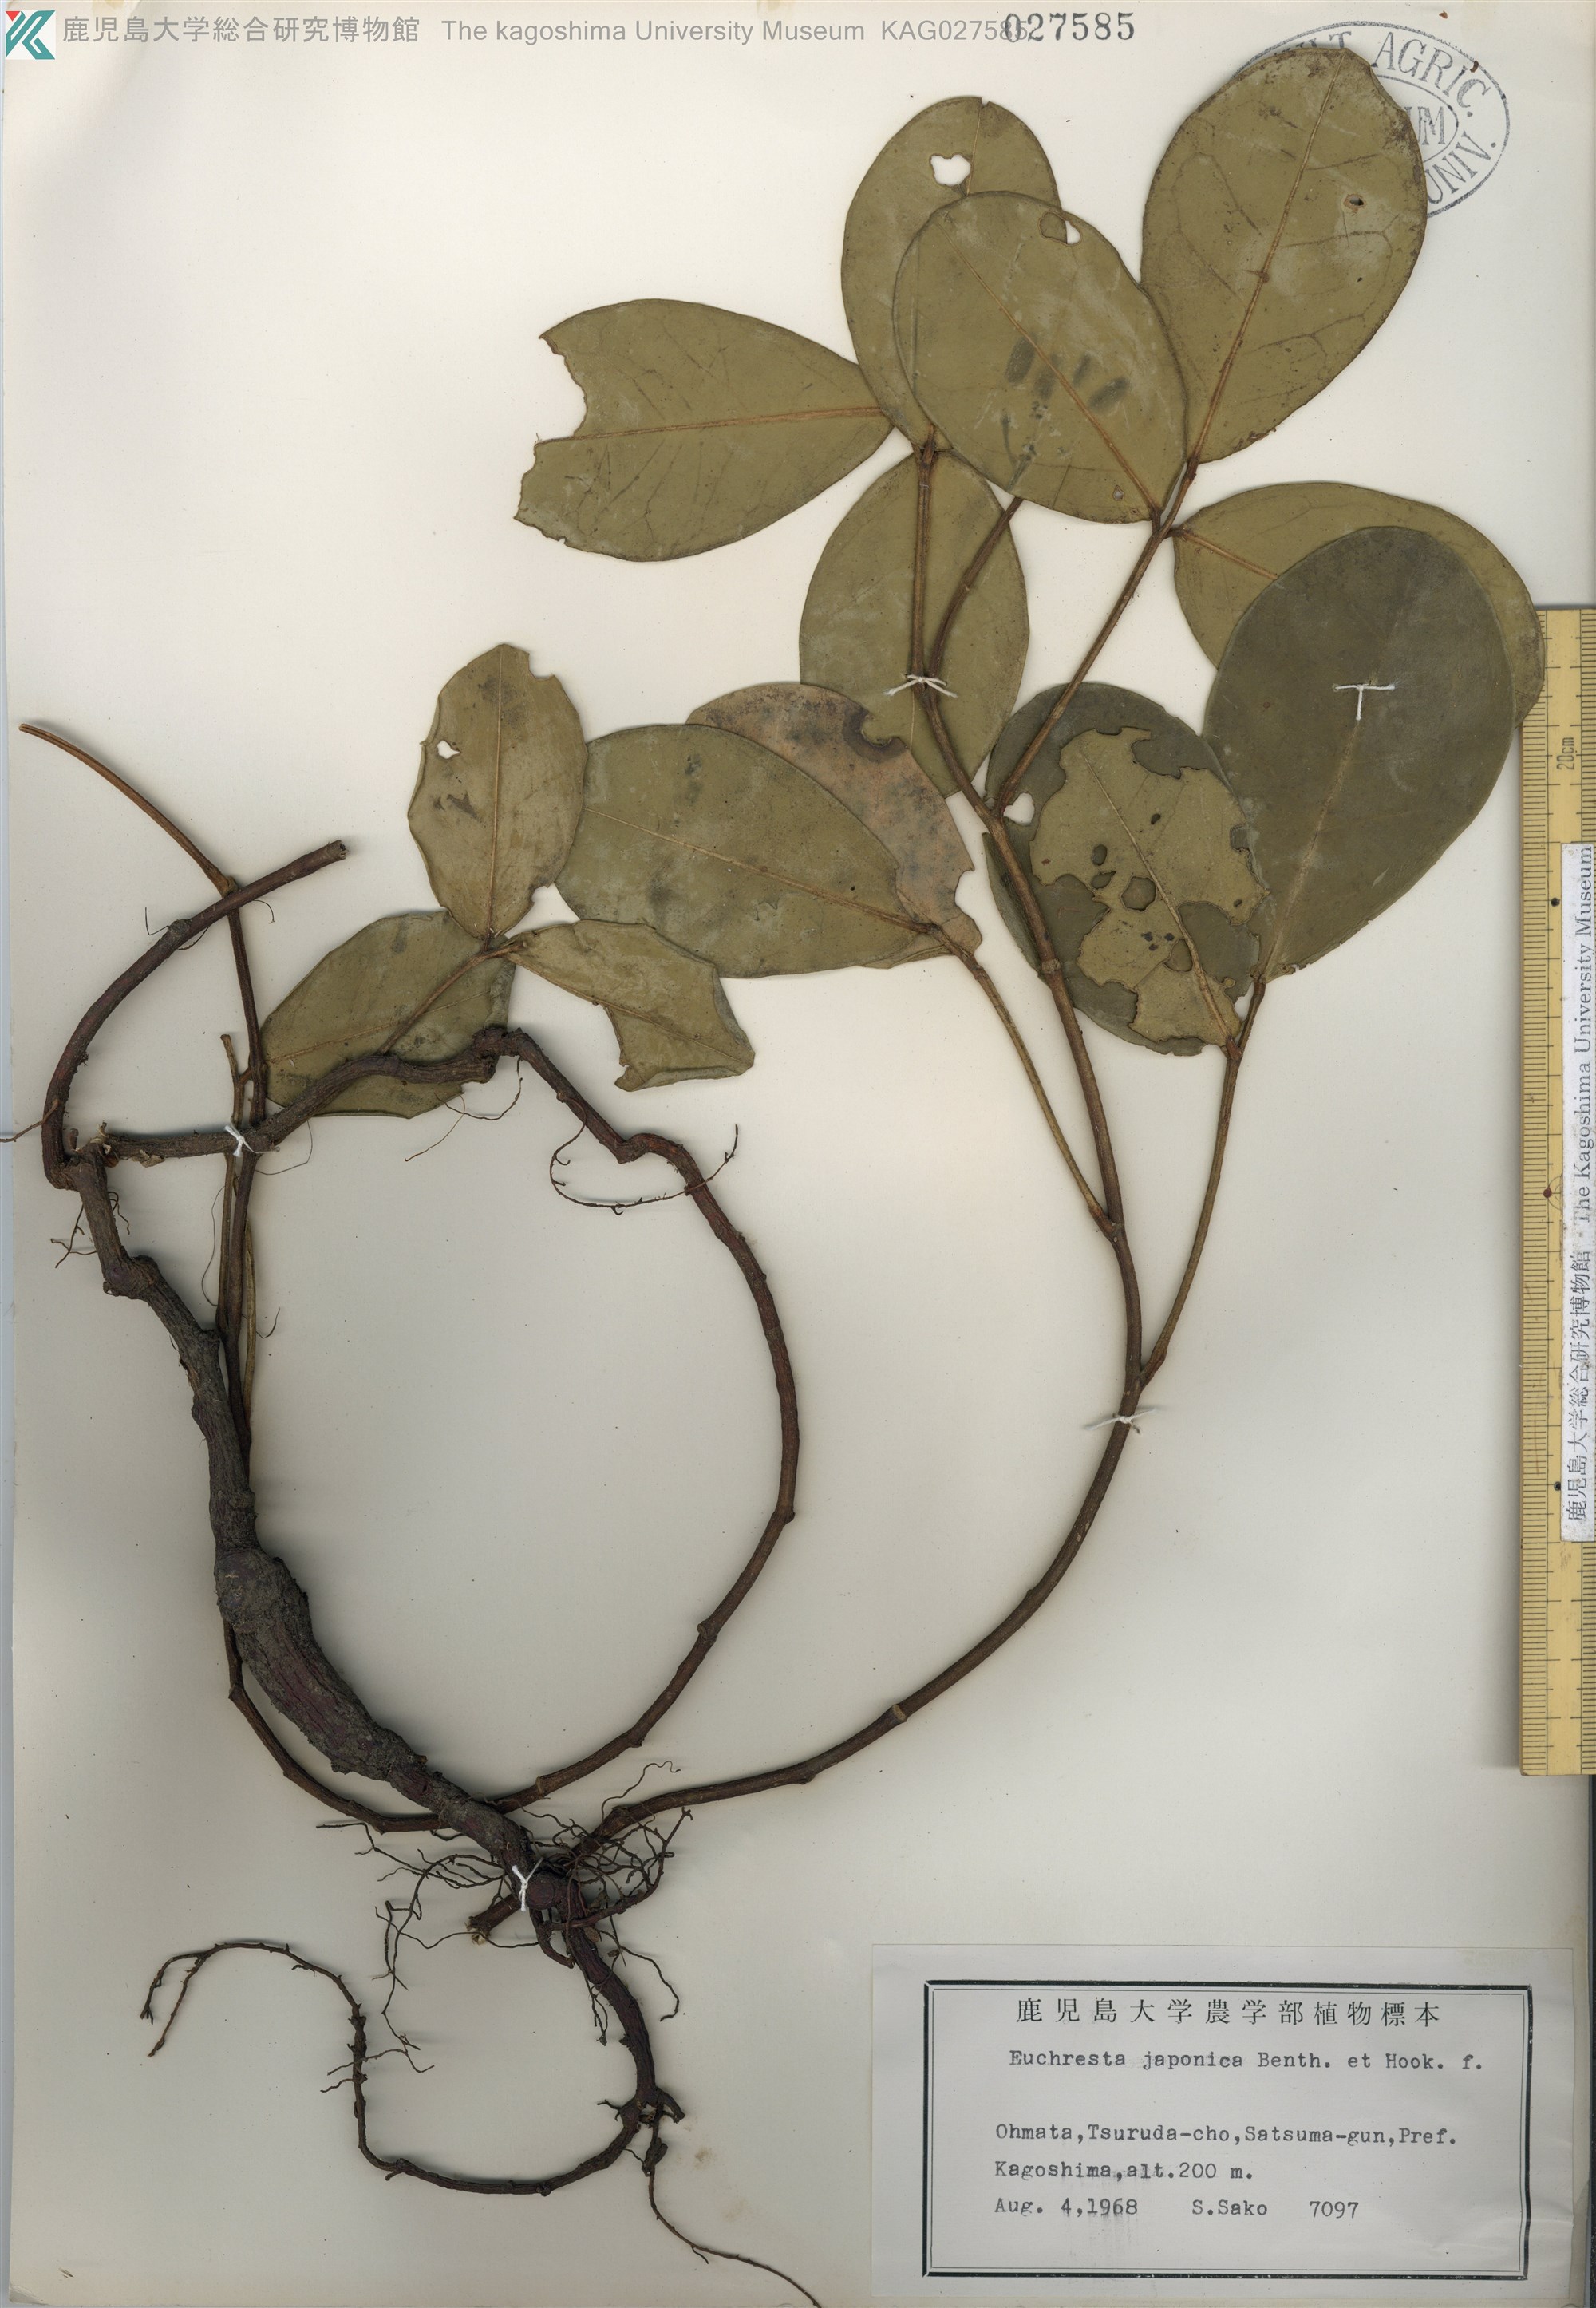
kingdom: Plantae
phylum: Tracheophyta
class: Magnoliopsida
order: Fabales
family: Fabaceae
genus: Euchresta
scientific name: Euchresta japonica
